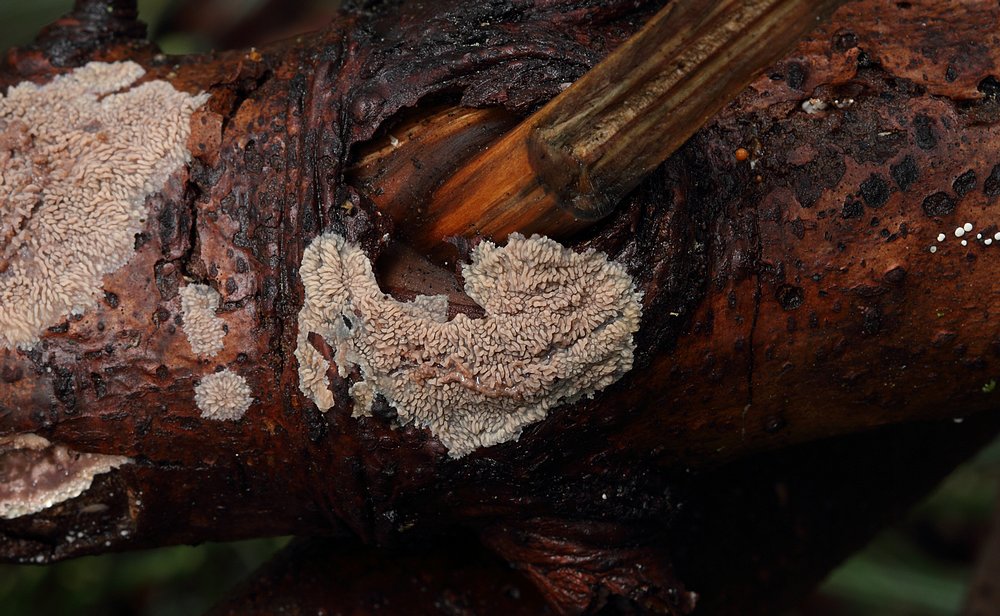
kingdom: Fungi
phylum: Basidiomycota
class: Agaricomycetes
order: Polyporales
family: Meruliaceae
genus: Phlebia
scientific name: Phlebia radiata
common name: stråle-åresvamp
